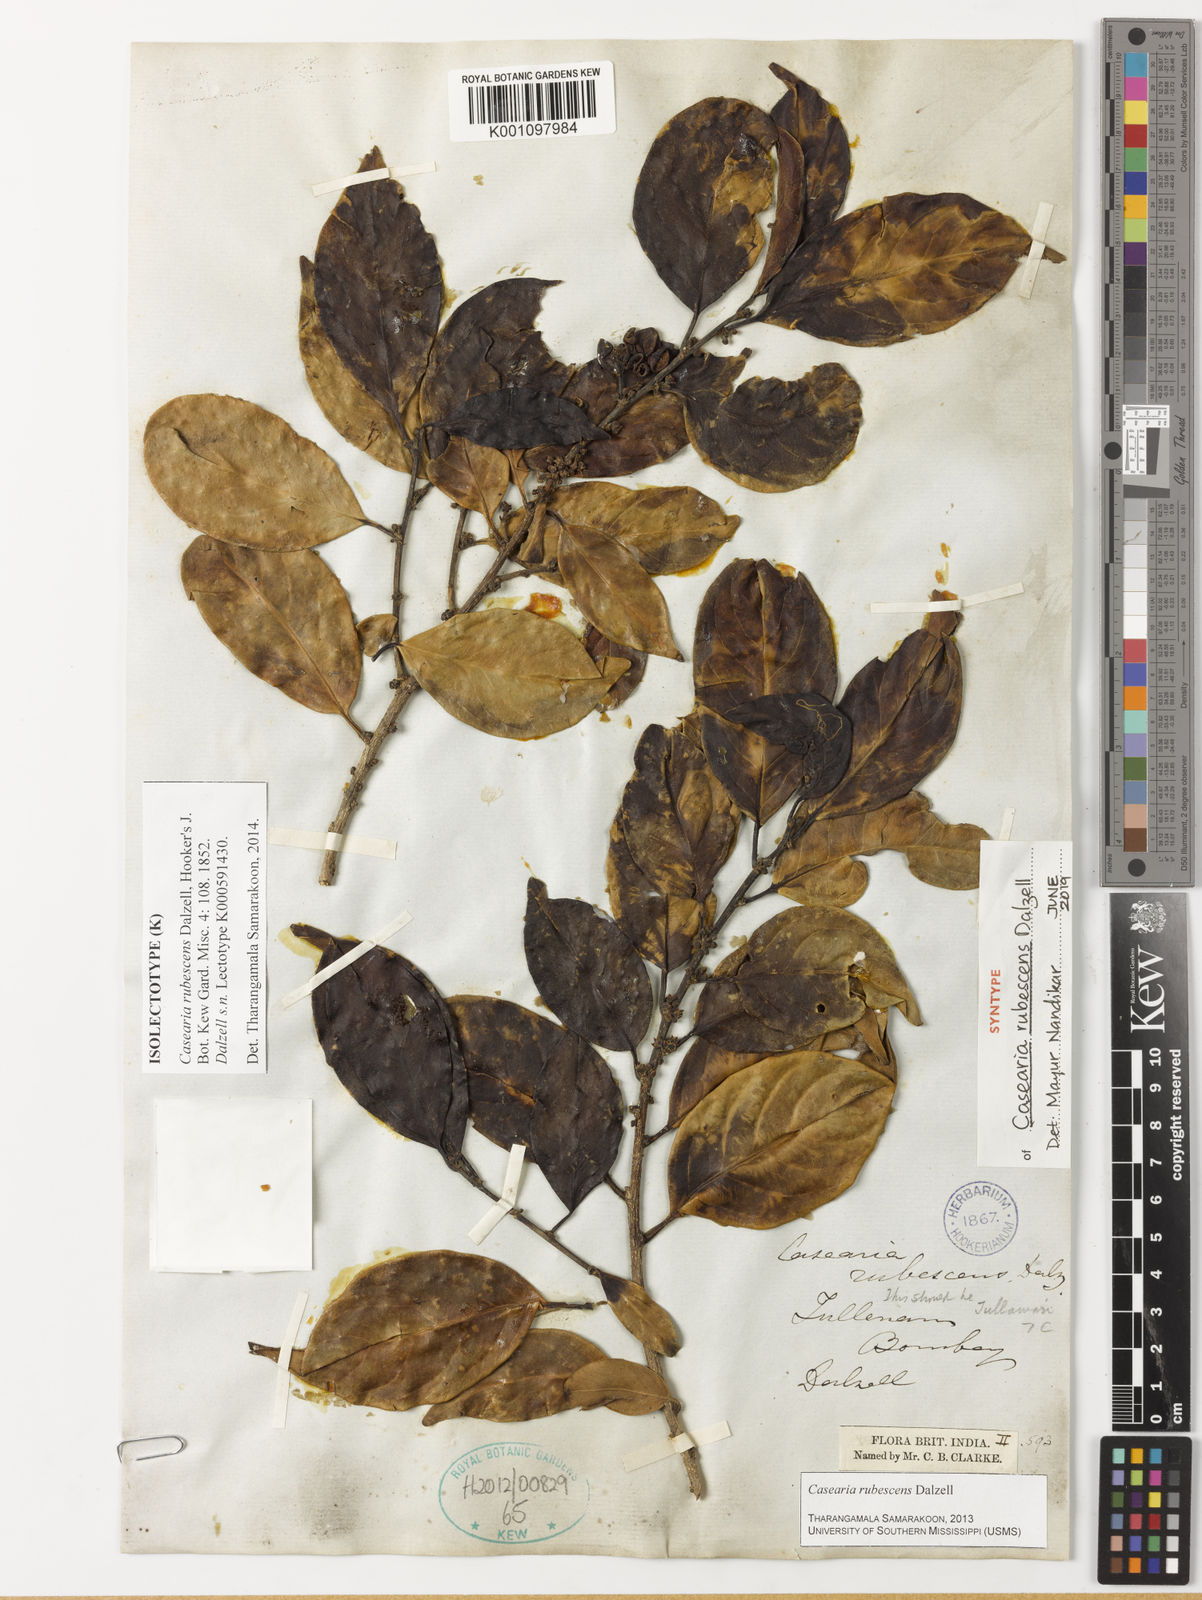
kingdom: Plantae
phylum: Tracheophyta
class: Magnoliopsida
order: Malpighiales
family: Salicaceae
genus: Casearia
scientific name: Casearia rubescens
